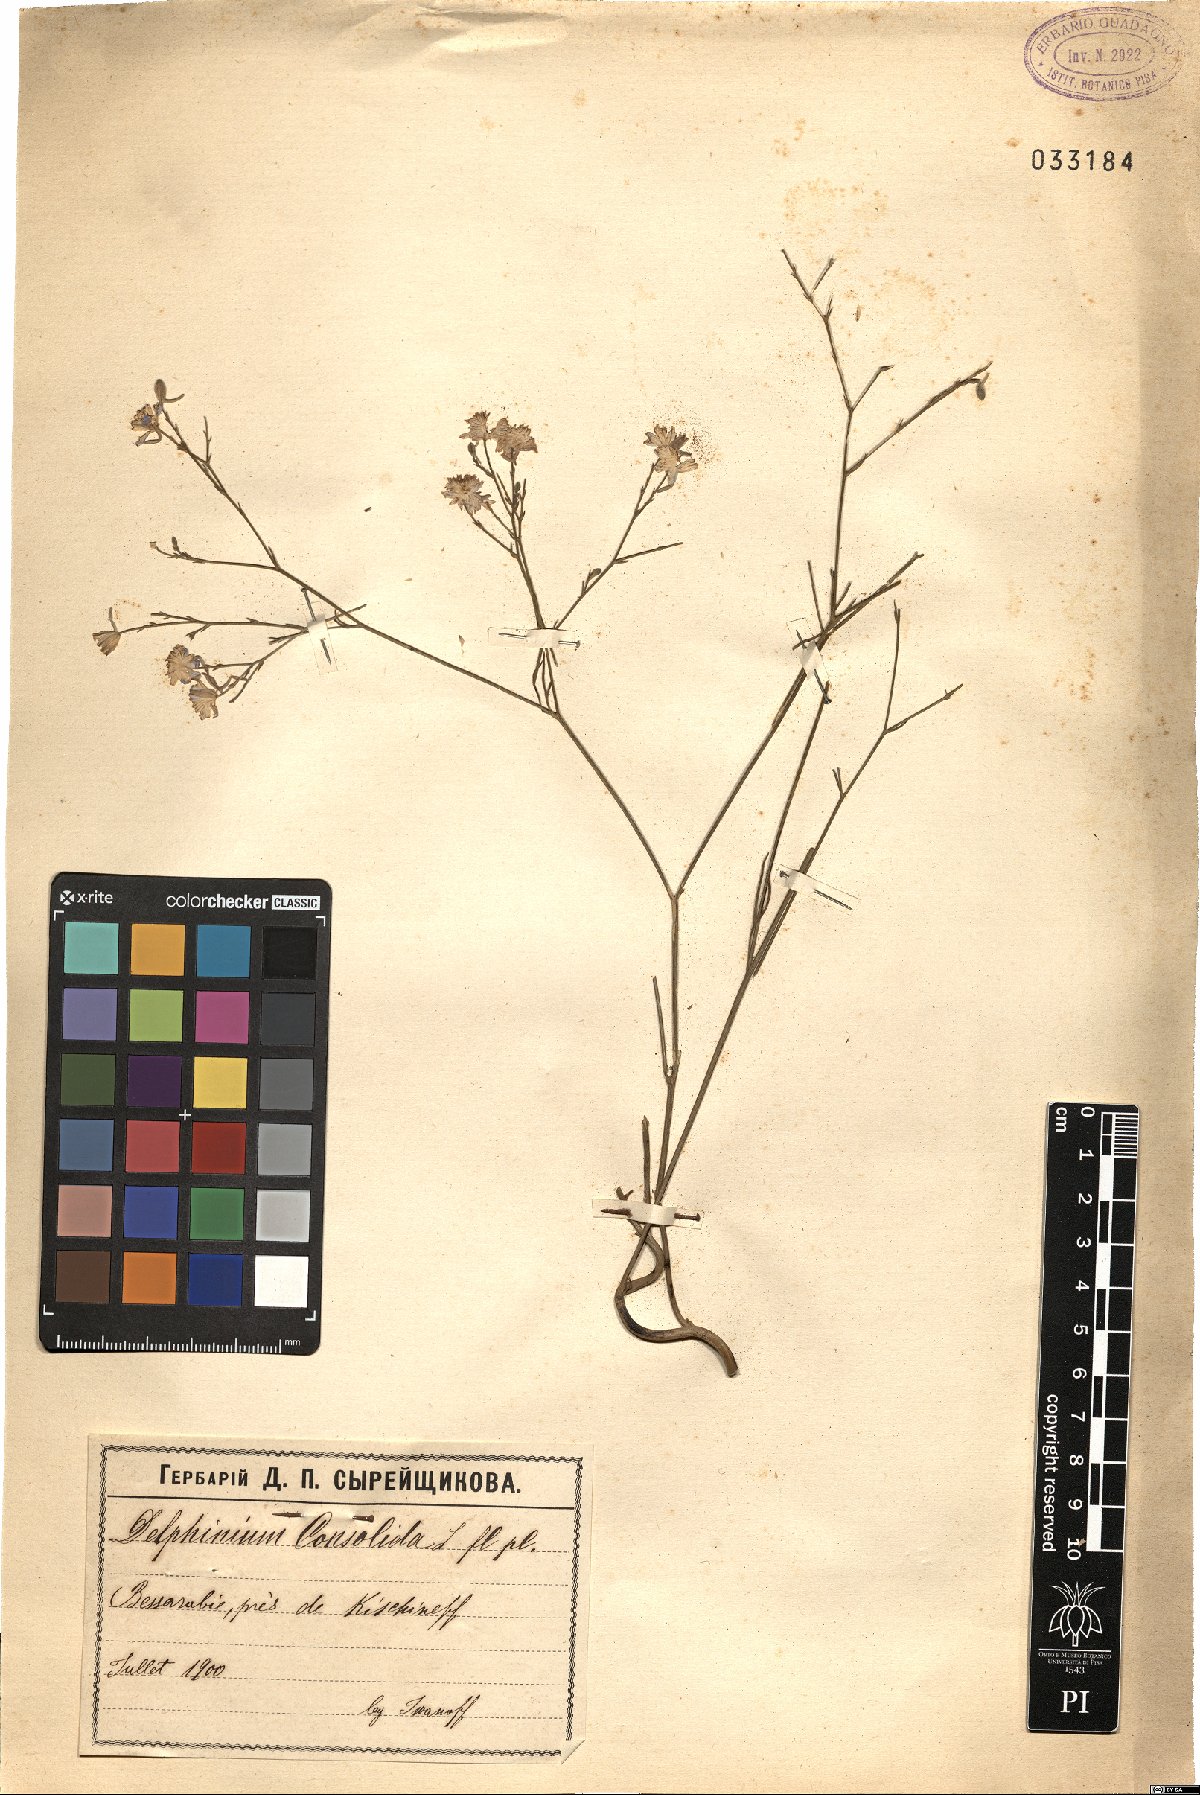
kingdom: Plantae
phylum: Tracheophyta
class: Magnoliopsida
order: Ranunculales
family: Ranunculaceae
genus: Delphinium
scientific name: Delphinium consolida
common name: Branching larkspur
